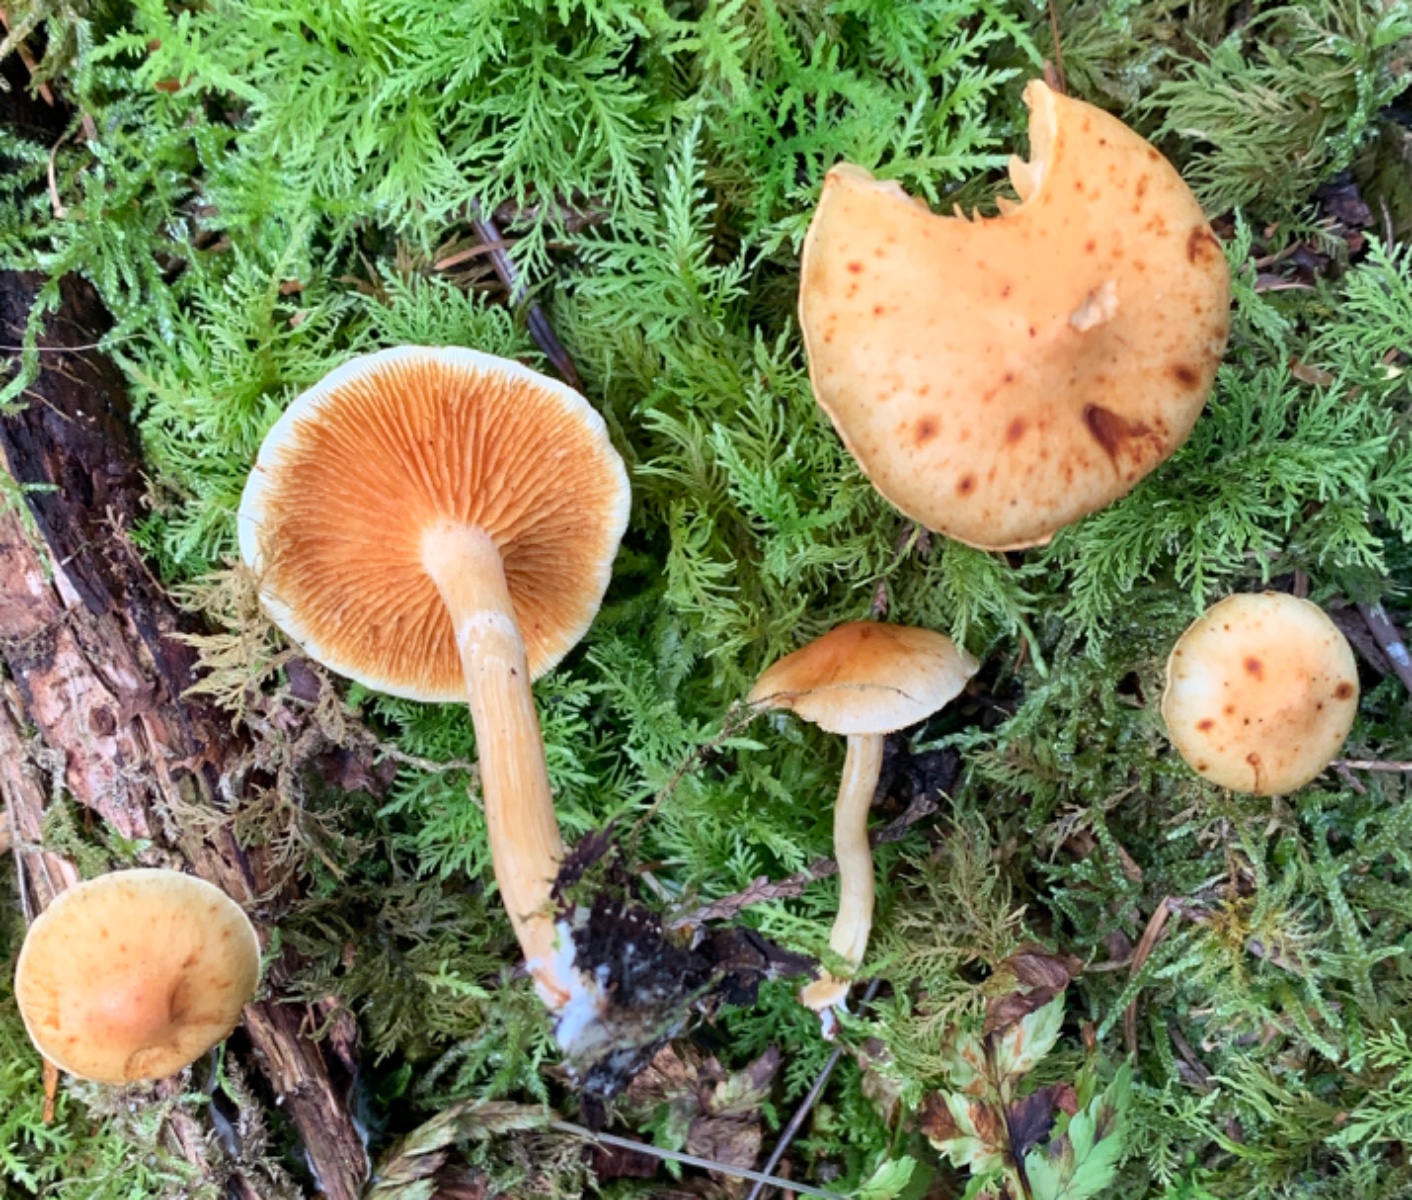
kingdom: Fungi
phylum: Basidiomycota
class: Agaricomycetes
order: Agaricales
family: Hymenogastraceae
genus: Gymnopilus
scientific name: Gymnopilus penetrans
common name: plettet flammehat
